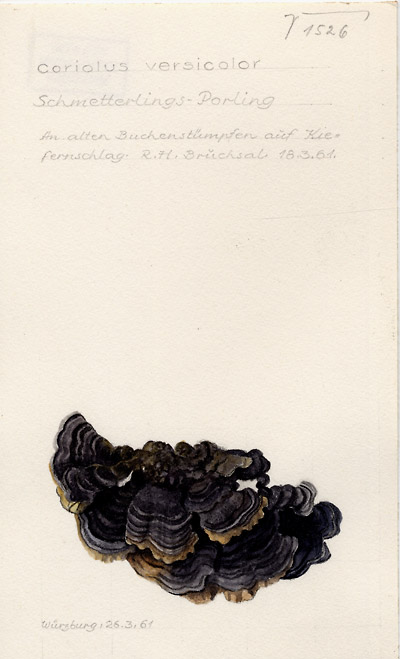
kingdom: Fungi
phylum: Basidiomycota
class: Agaricomycetes
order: Polyporales
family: Polyporaceae
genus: Trametes
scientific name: Trametes versicolor
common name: Turkeytail
